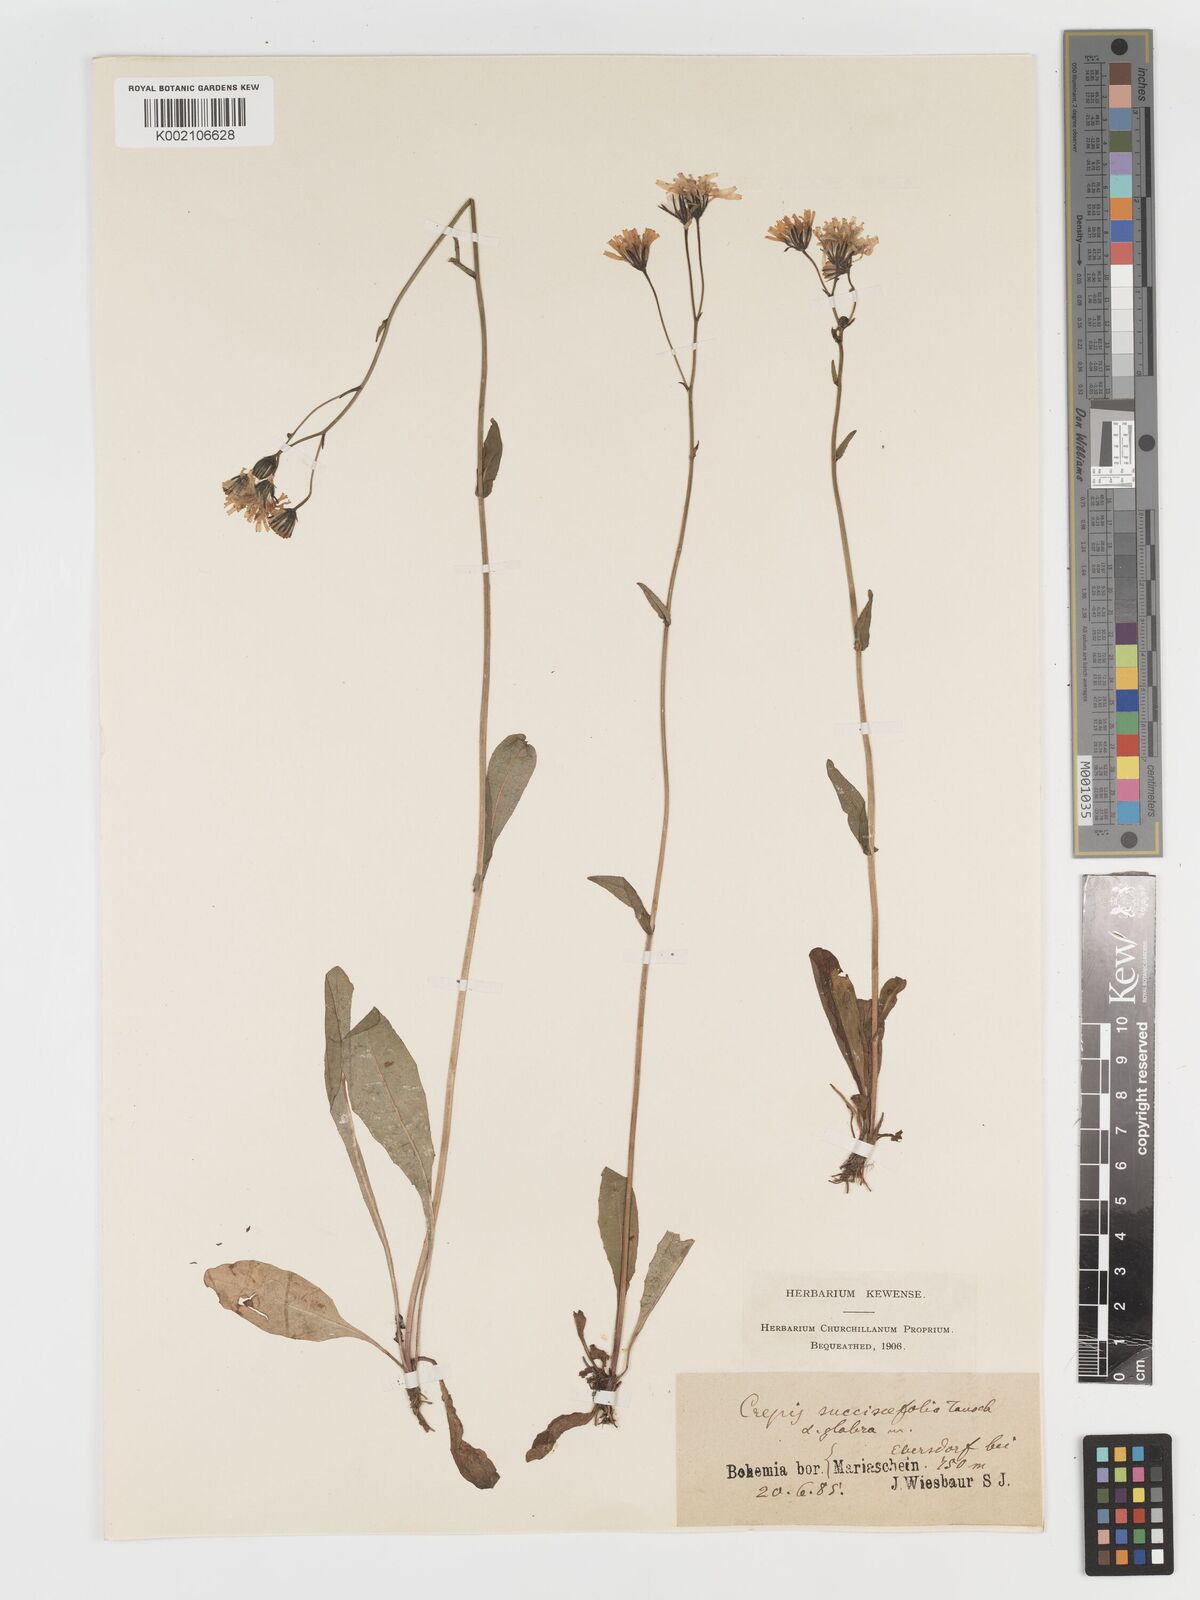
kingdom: Plantae
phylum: Tracheophyta
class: Magnoliopsida
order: Asterales
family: Asteraceae
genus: Crepis
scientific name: Crepis mollis
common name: Northern hawk's-beard
